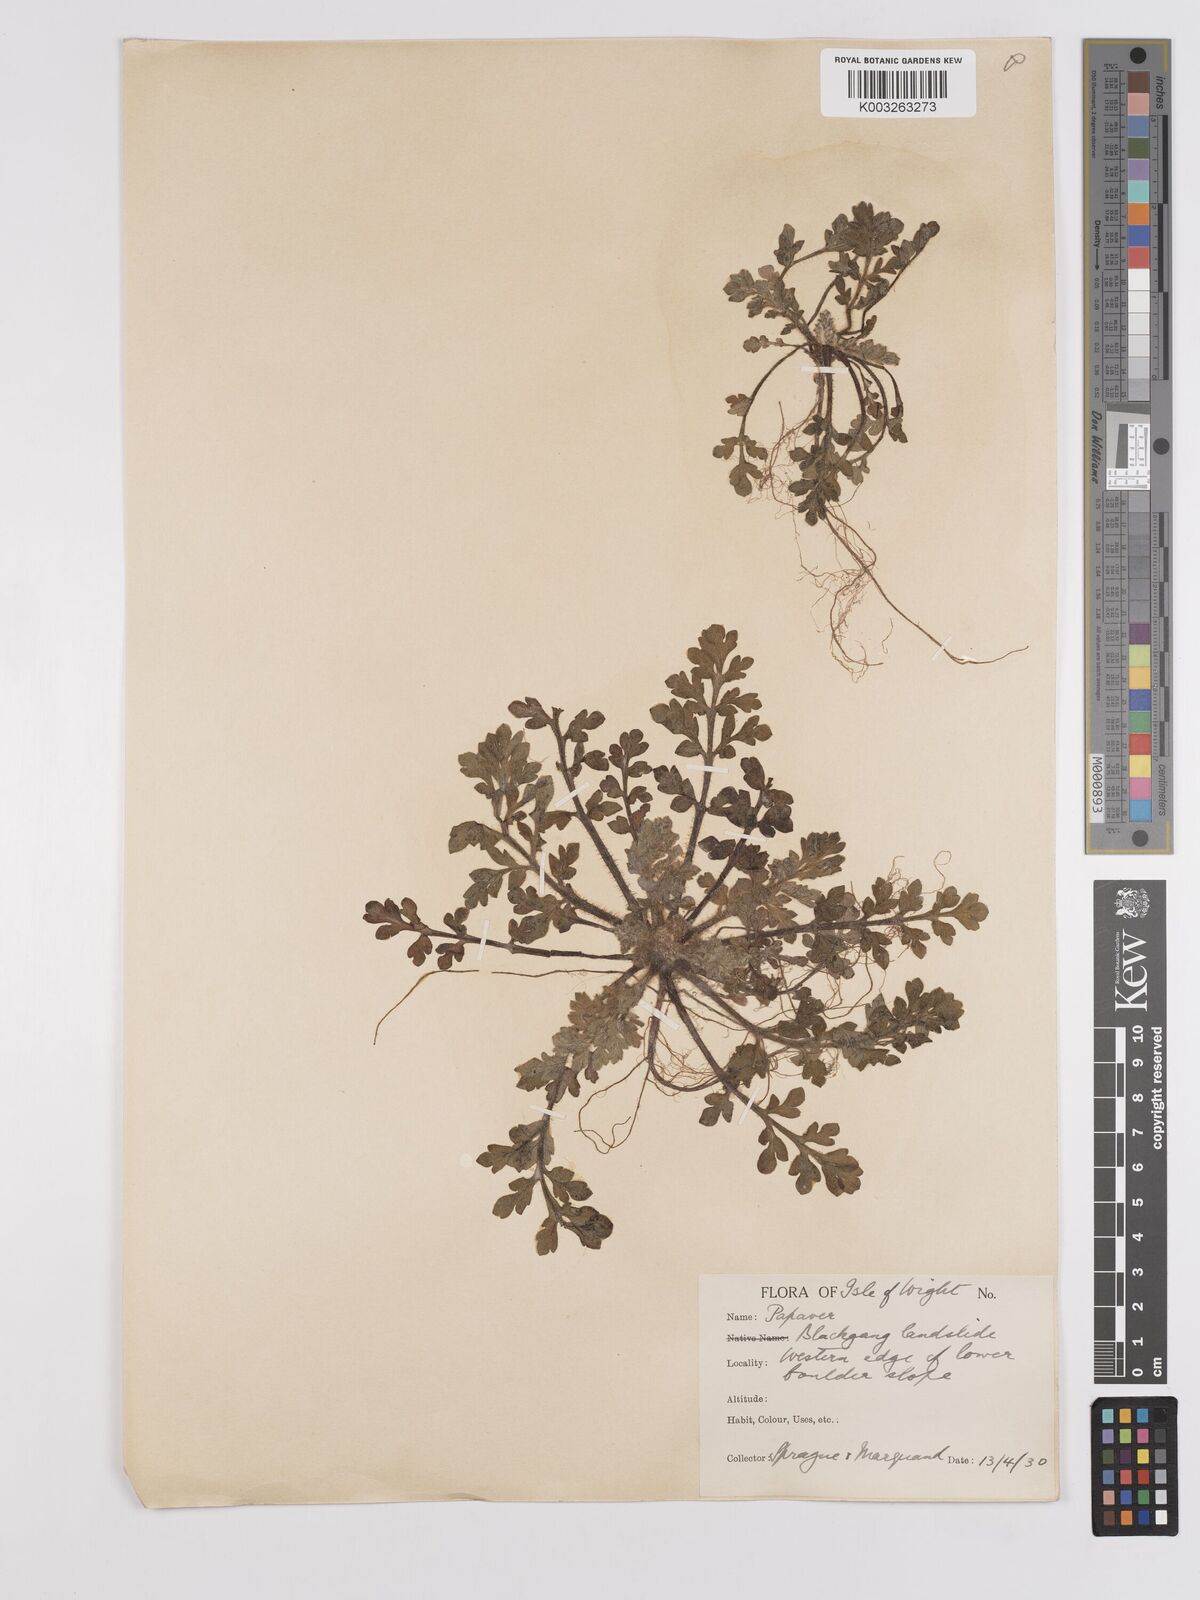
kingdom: Plantae
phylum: Tracheophyta
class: Magnoliopsida
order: Ranunculales
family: Papaveraceae
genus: Papaver
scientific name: Papaver
